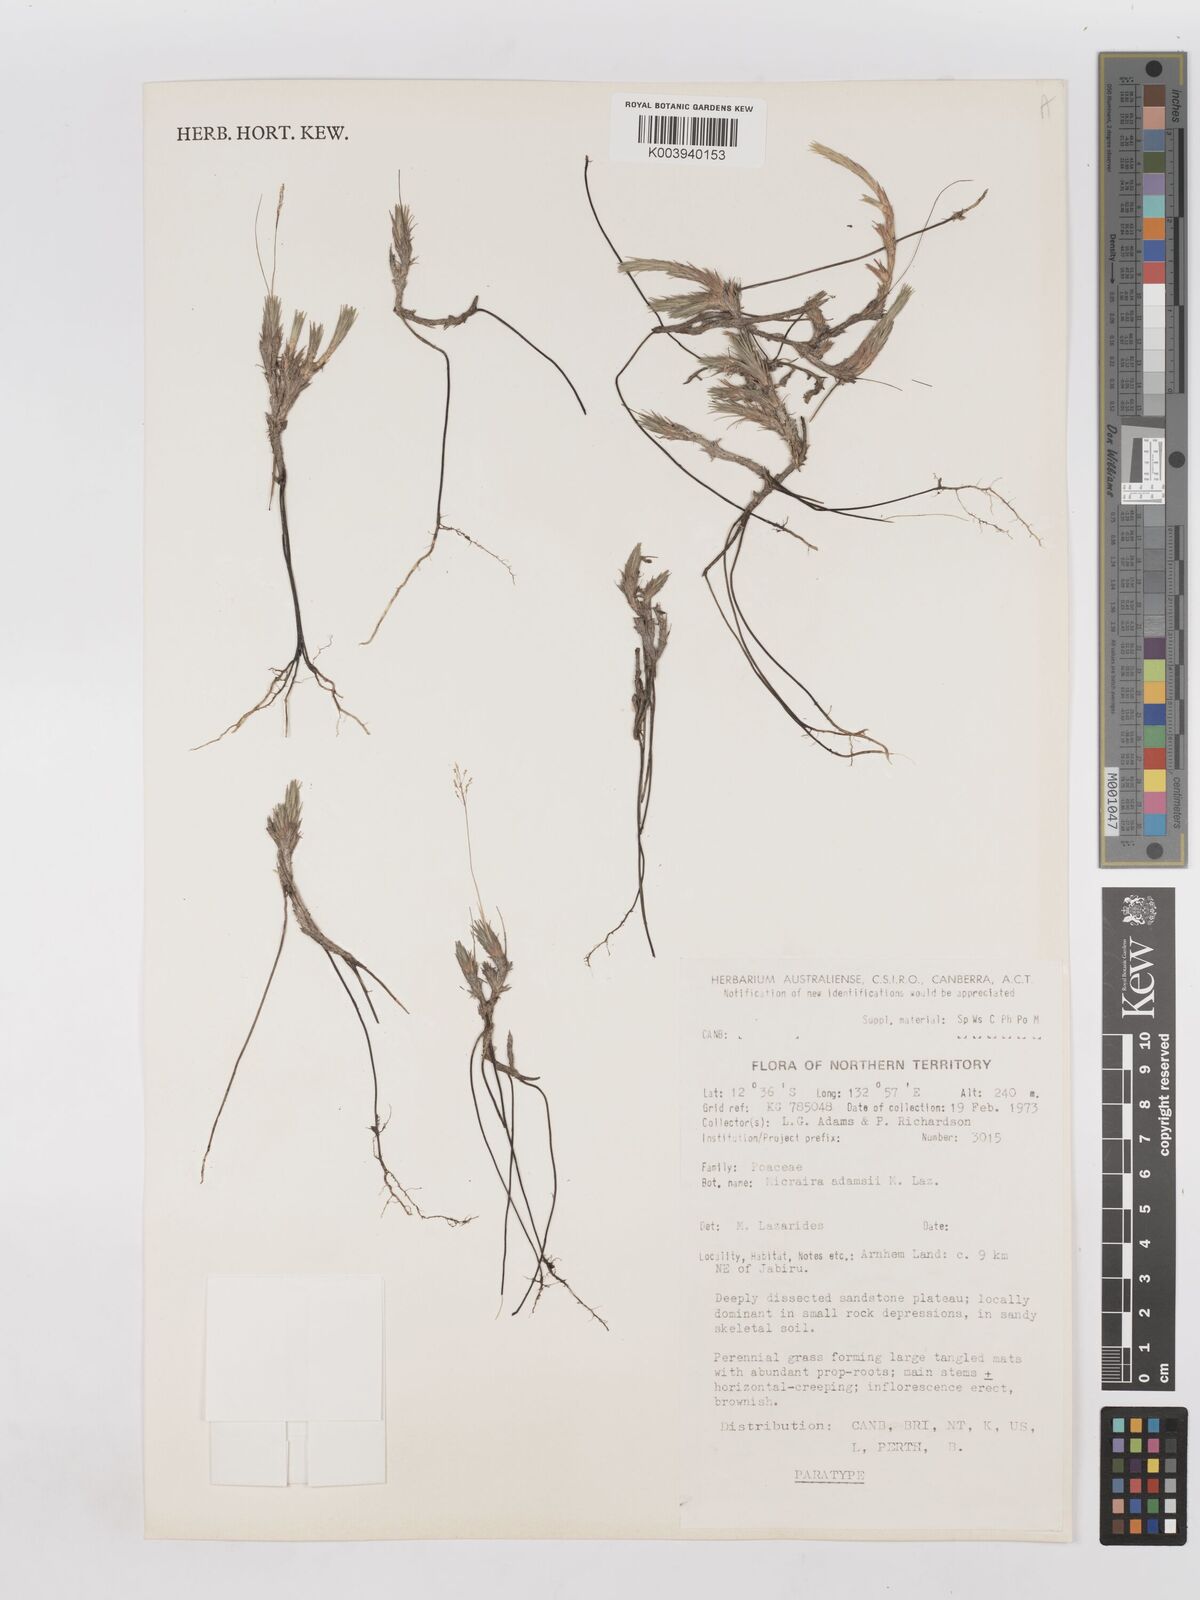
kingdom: Plantae
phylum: Tracheophyta
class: Liliopsida
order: Poales
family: Poaceae
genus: Micraira
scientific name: Micraira adamsii
